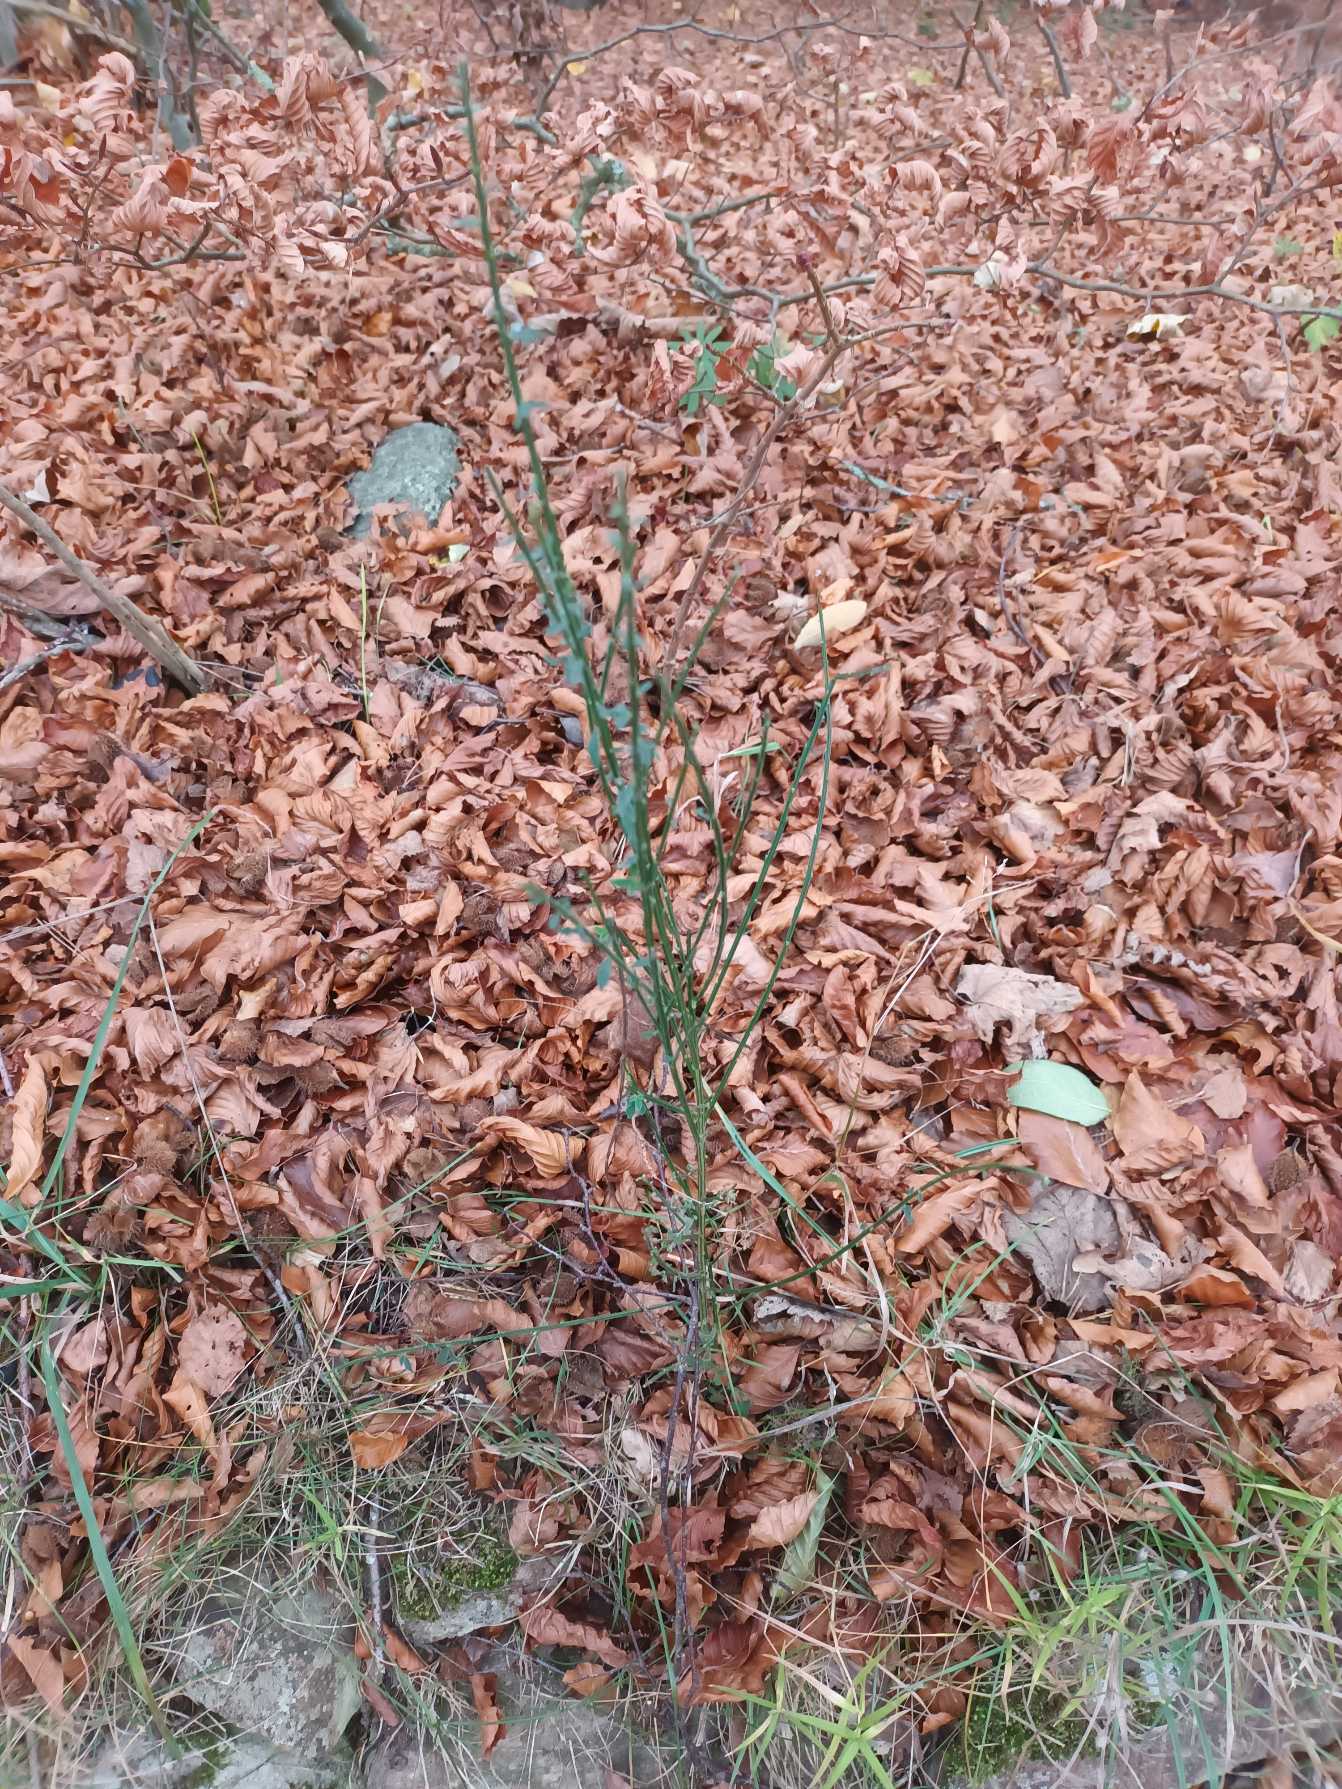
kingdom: Plantae
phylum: Tracheophyta
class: Magnoliopsida
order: Fabales
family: Fabaceae
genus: Cytisus
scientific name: Cytisus scoparius
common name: Almindelig gyvel
